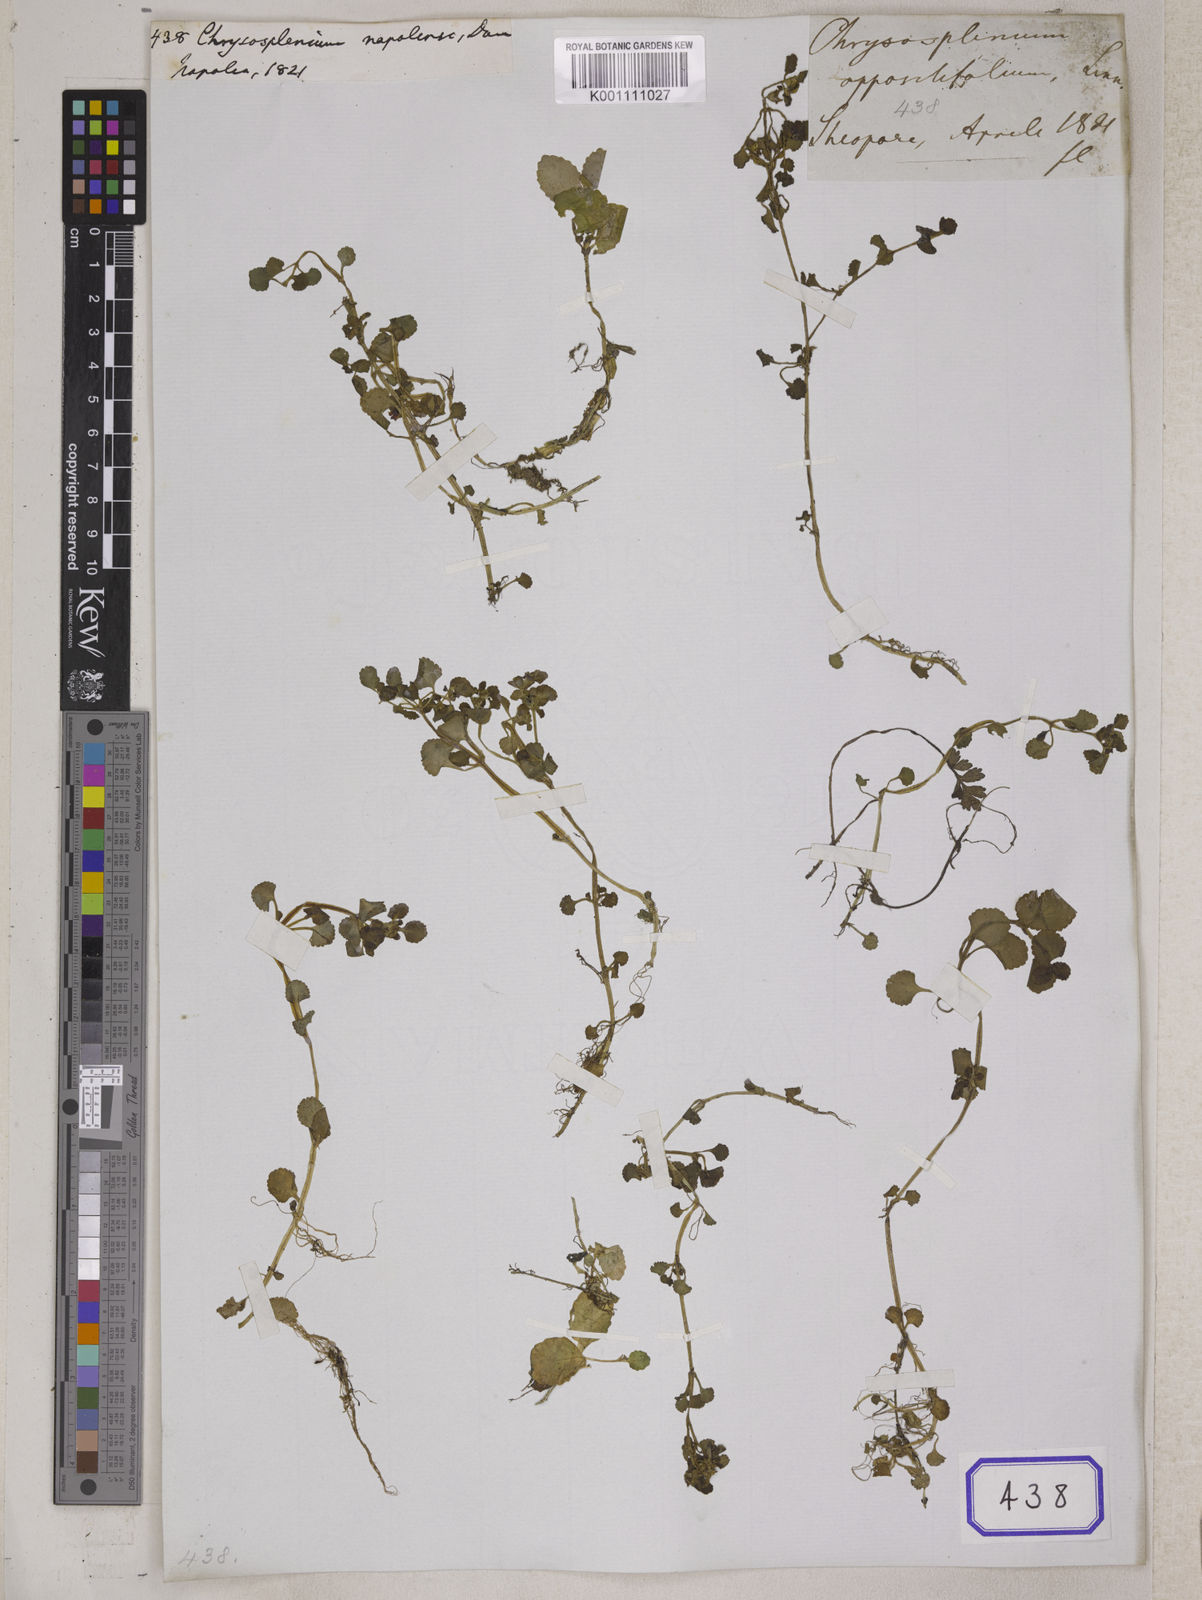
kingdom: Plantae
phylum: Tracheophyta
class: Magnoliopsida
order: Saxifragales
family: Saxifragaceae
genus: Chrysosplenium
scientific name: Chrysosplenium nepalense
